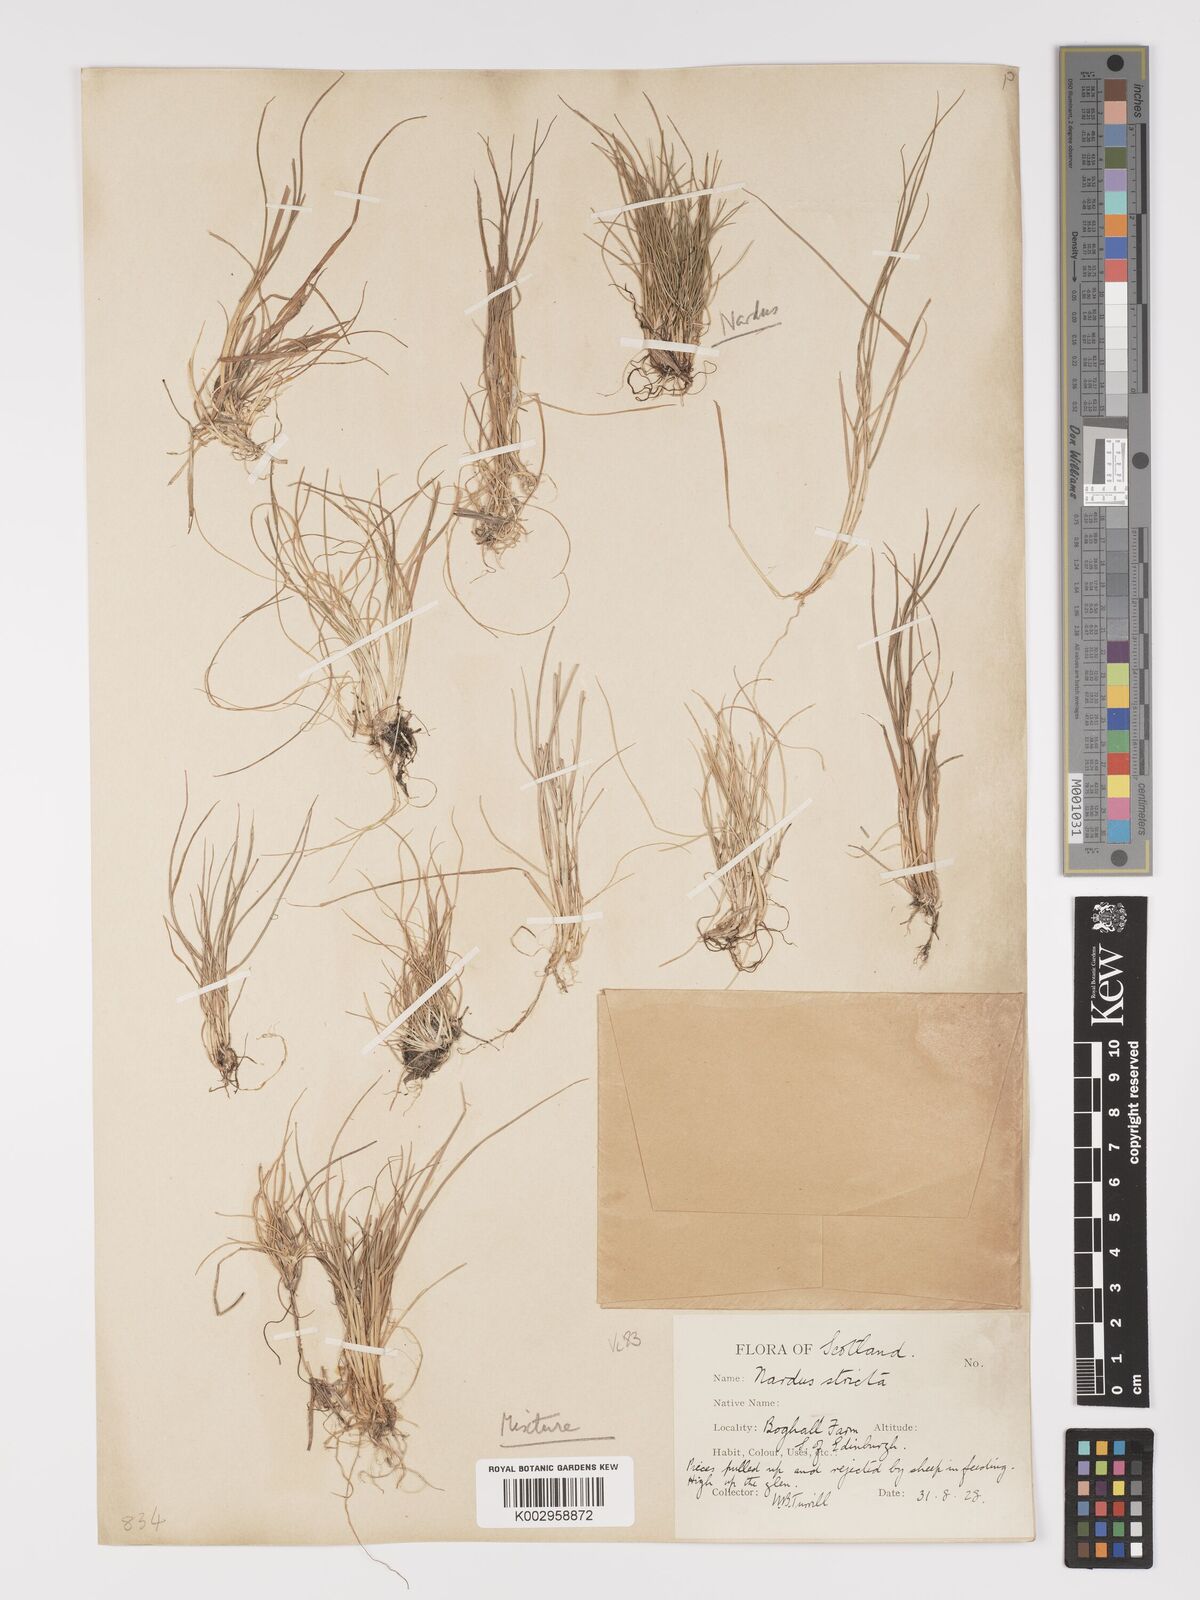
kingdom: Plantae
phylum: Tracheophyta
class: Liliopsida
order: Poales
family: Poaceae
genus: Nardus
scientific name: Nardus stricta
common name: Mat-grass
